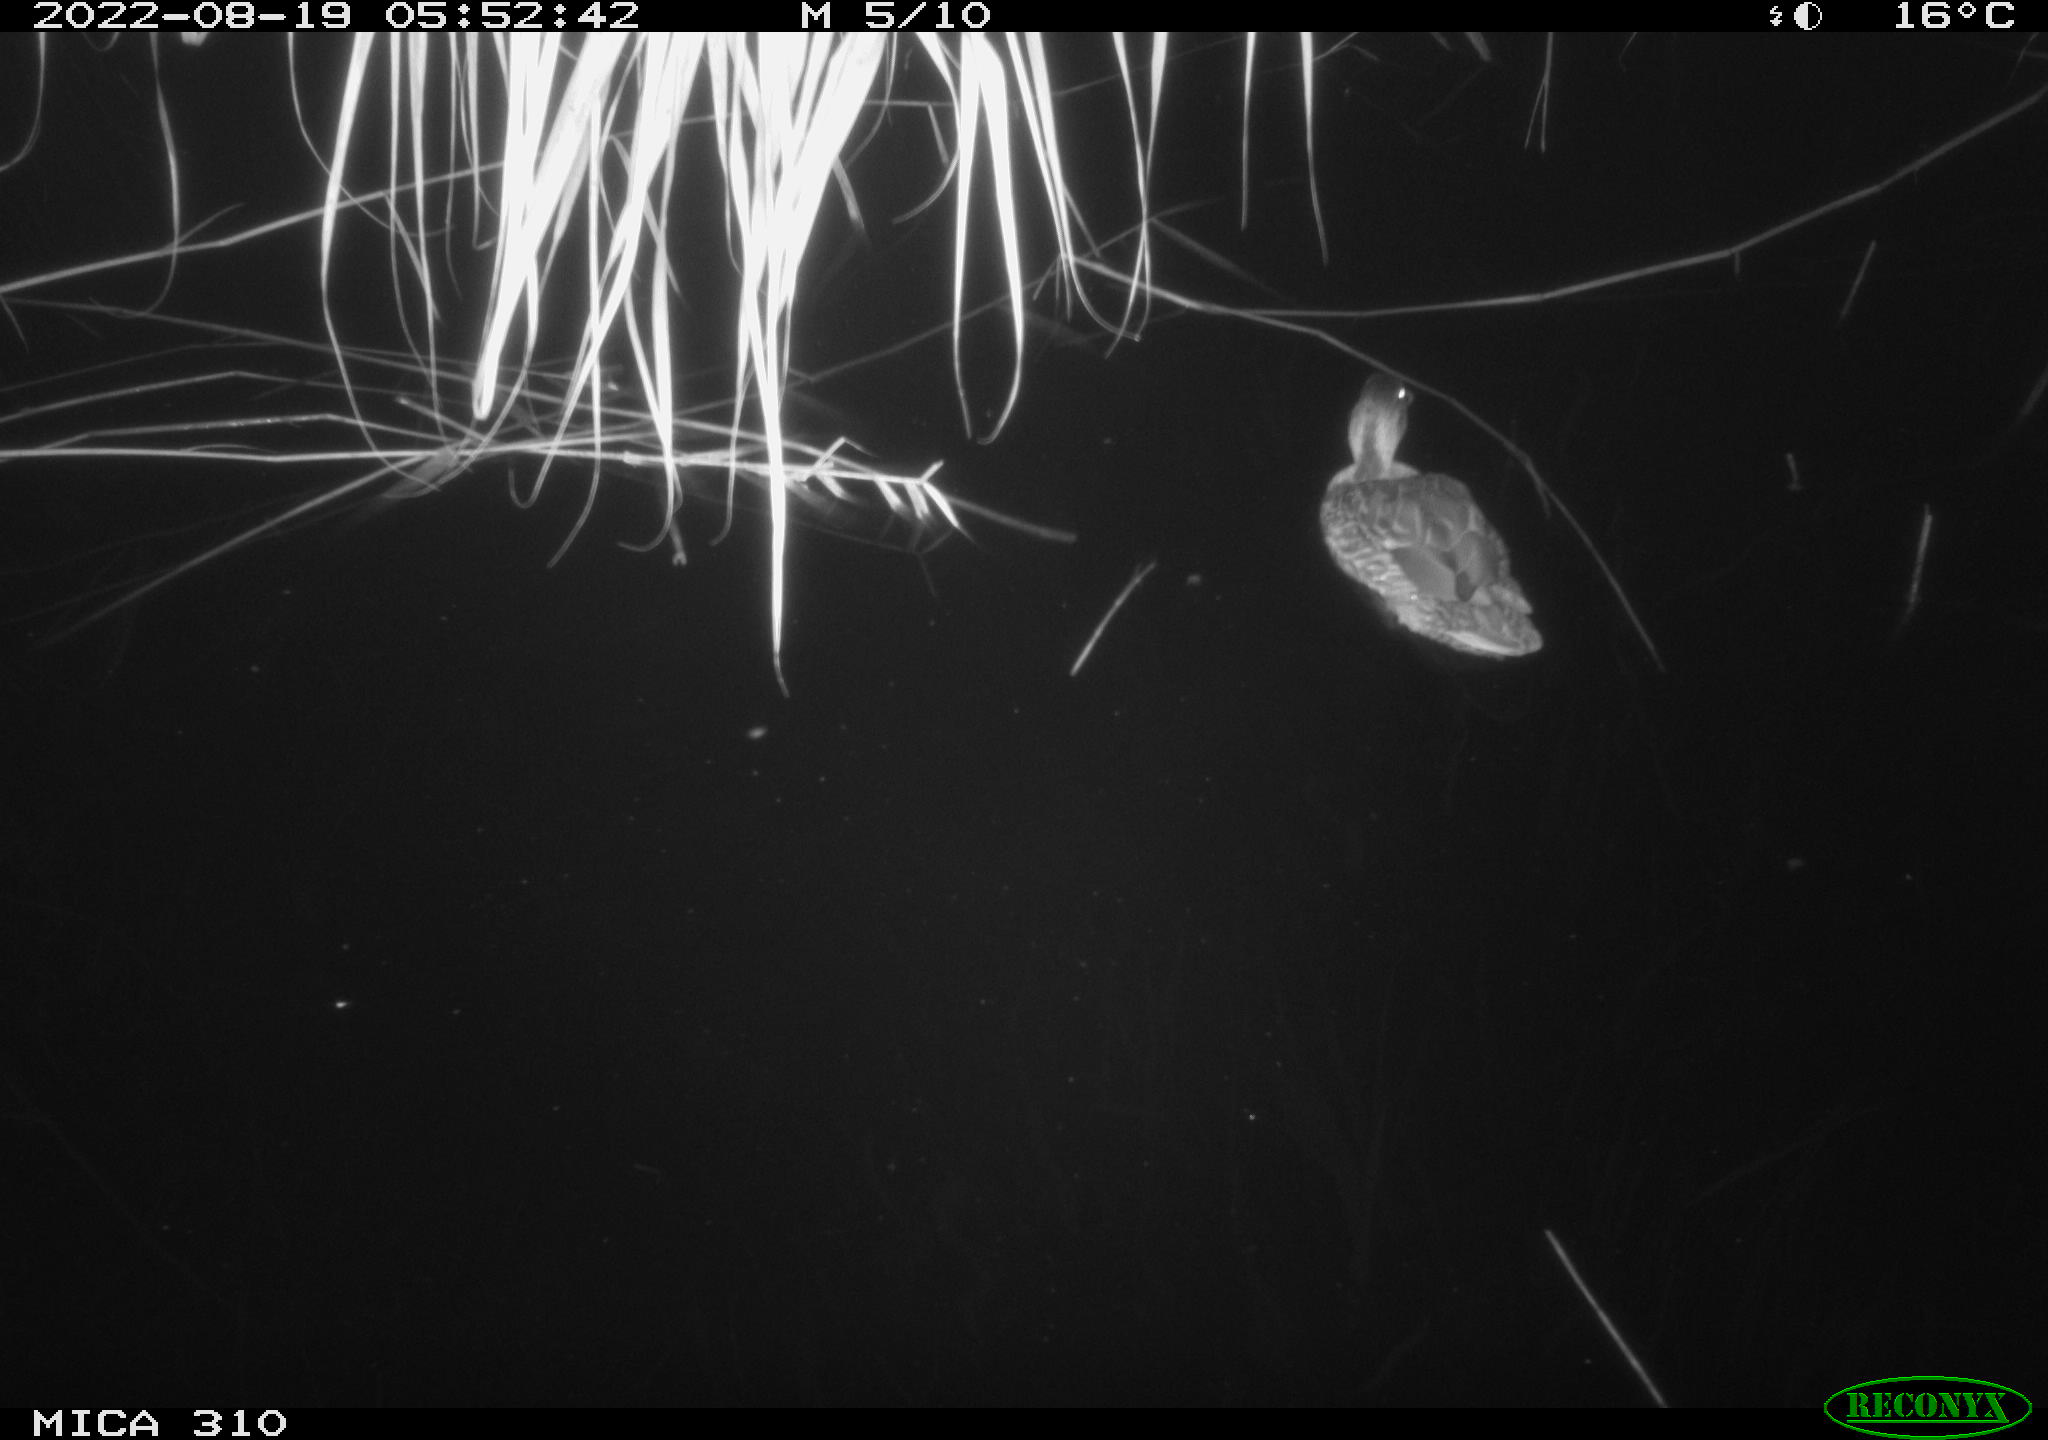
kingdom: Animalia
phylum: Chordata
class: Aves
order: Anseriformes
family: Anatidae
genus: Anas
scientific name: Anas platyrhynchos
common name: Mallard
